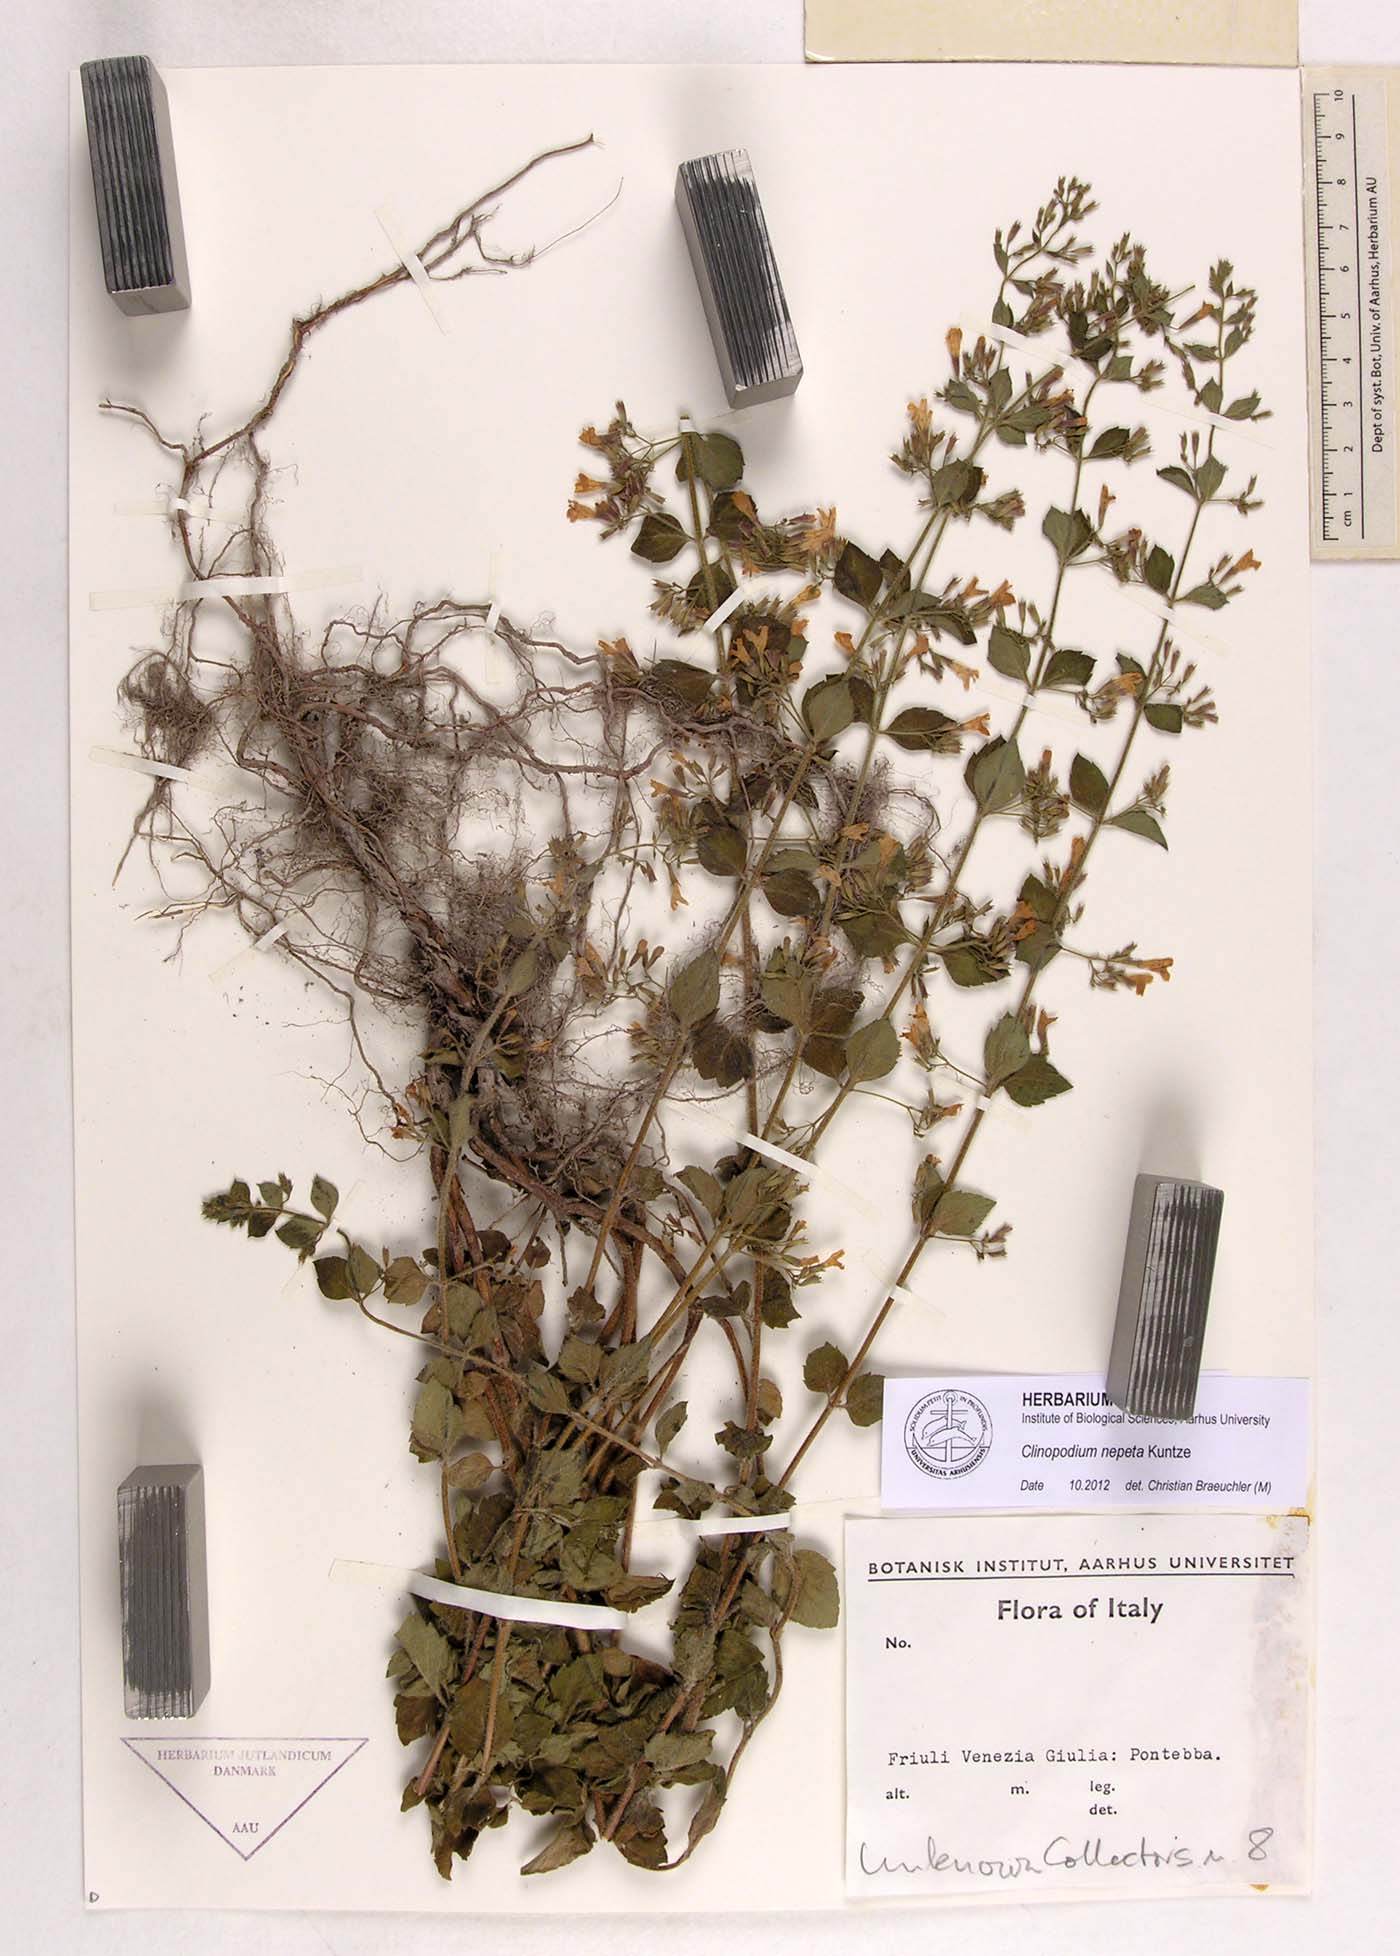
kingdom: Plantae
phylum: Tracheophyta
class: Magnoliopsida
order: Lamiales
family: Lamiaceae
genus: Clinopodium
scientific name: Clinopodium nepeta
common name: Lesser calamint
